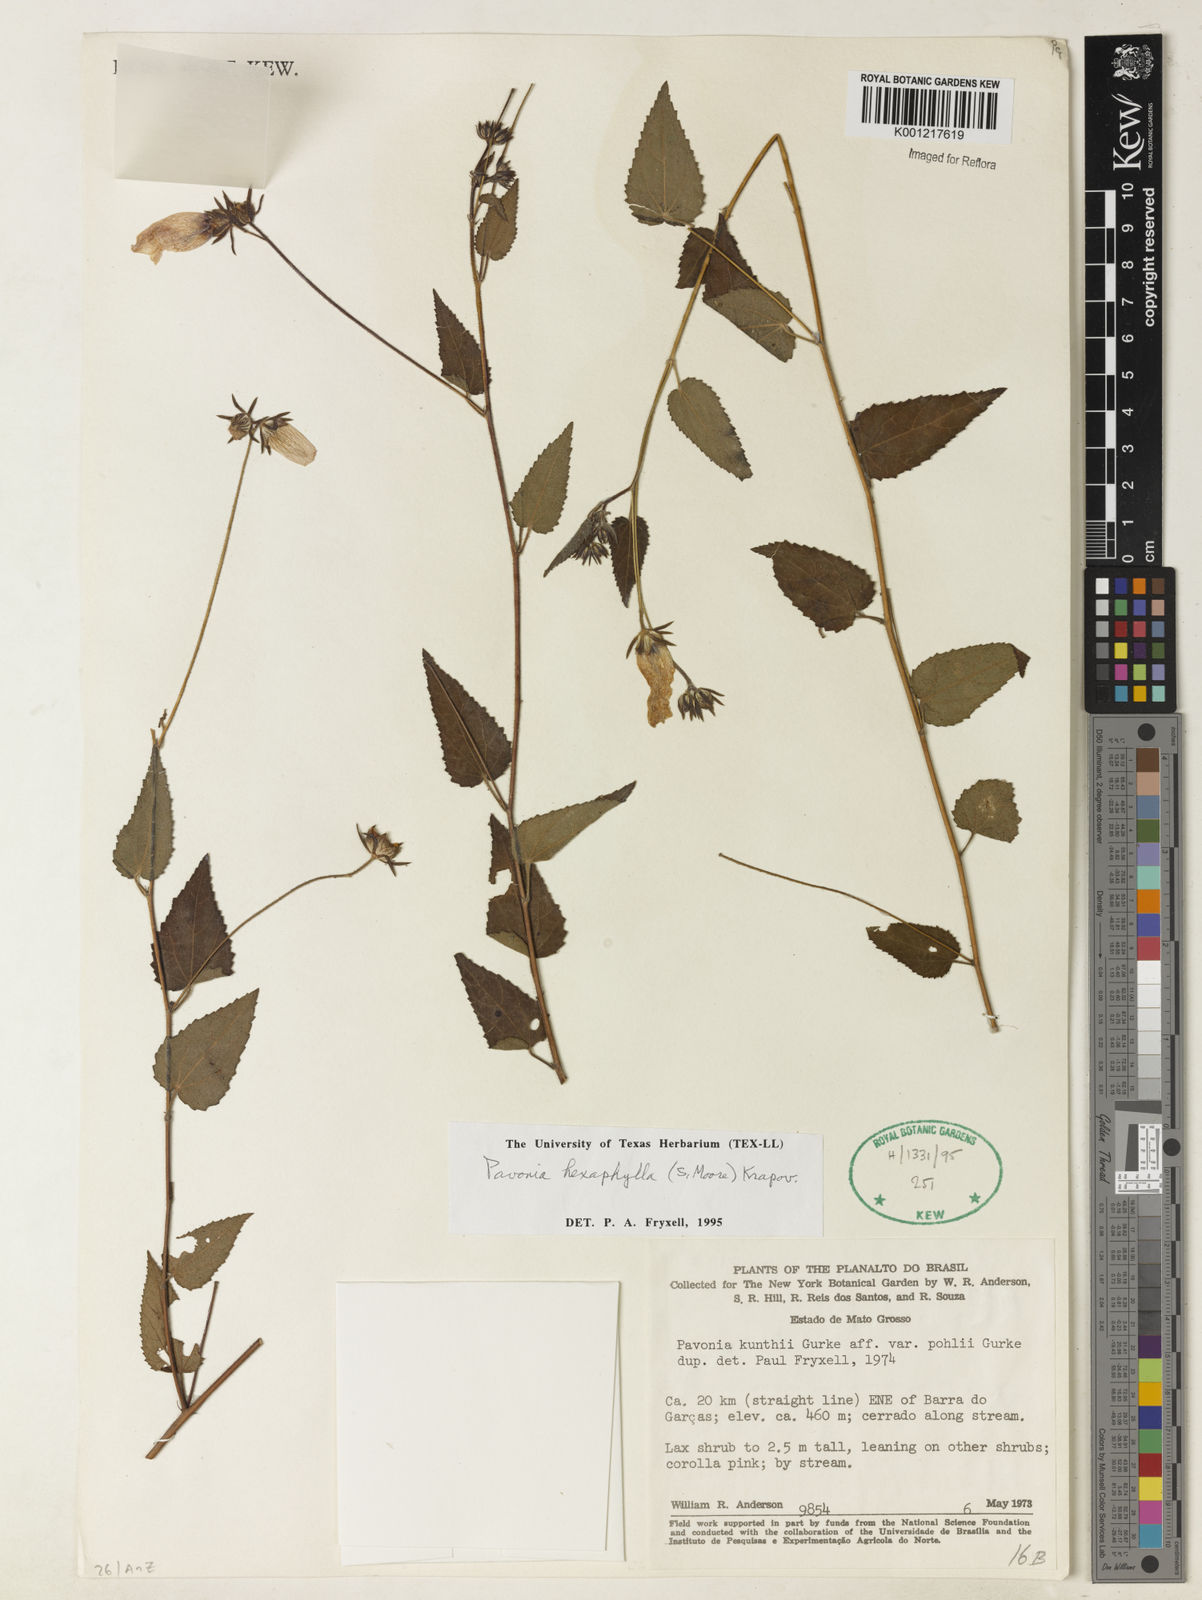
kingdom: Plantae
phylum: Tracheophyta
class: Magnoliopsida
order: Malvales
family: Malvaceae
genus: Pavonia
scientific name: Pavonia geminiflora
